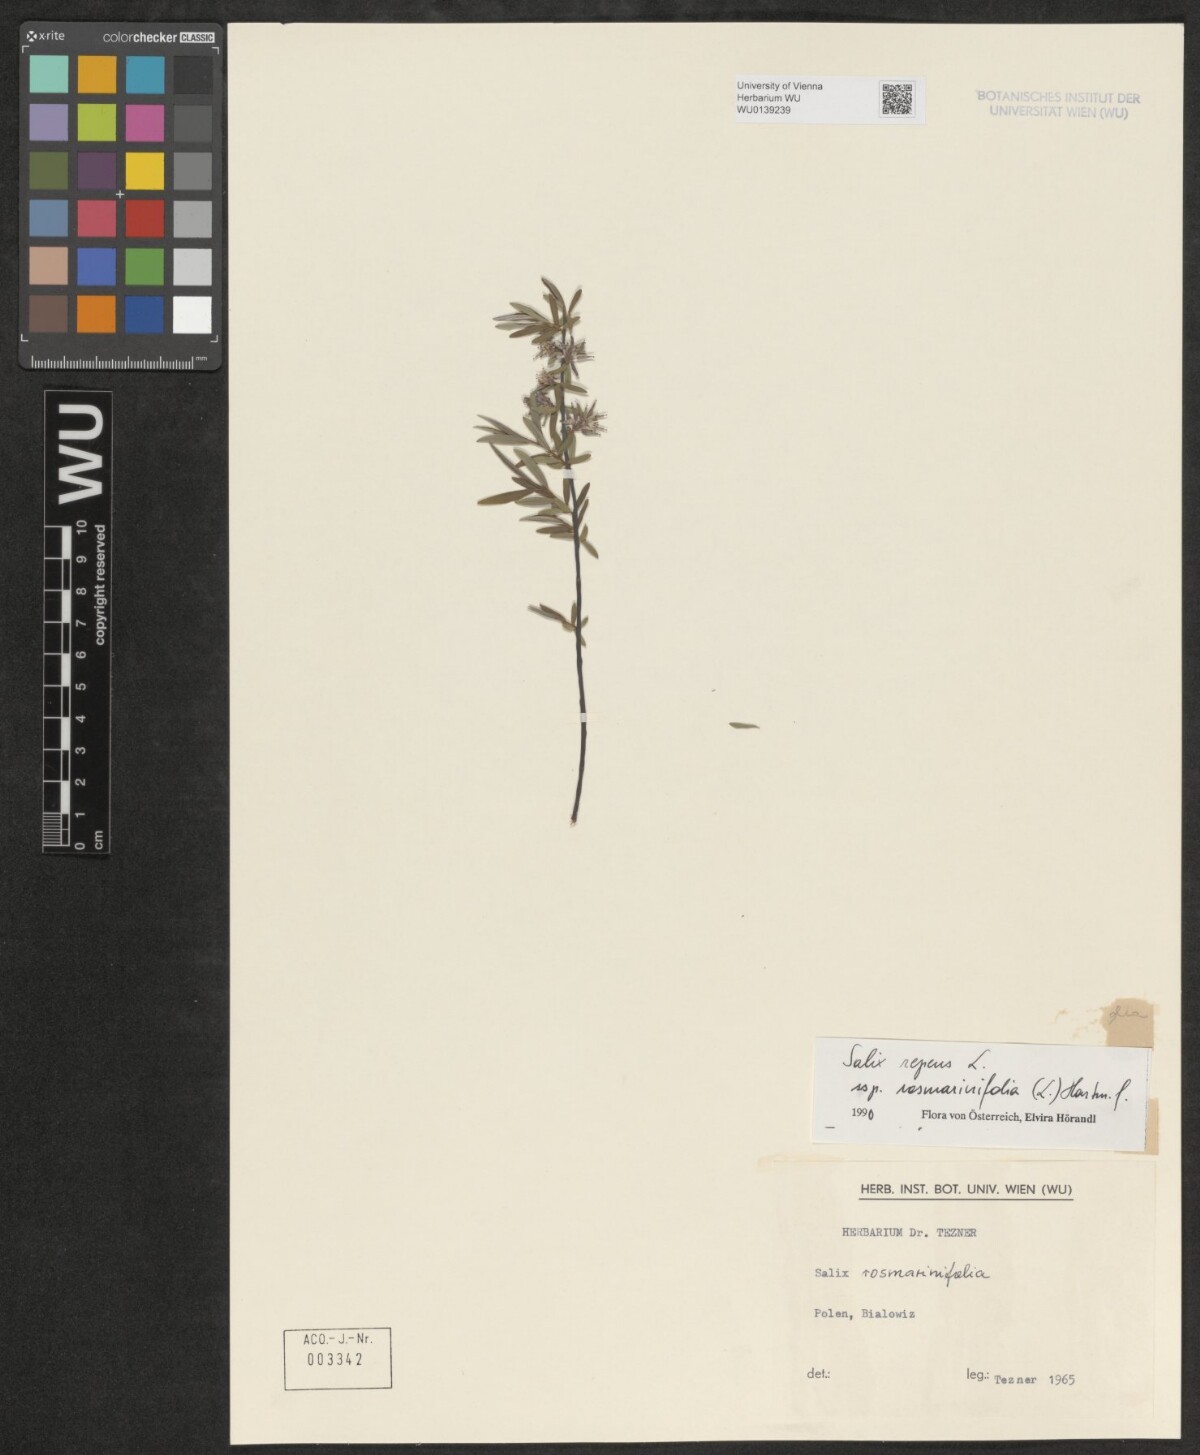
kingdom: Plantae
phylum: Tracheophyta
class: Magnoliopsida
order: Malpighiales
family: Salicaceae
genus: Salix
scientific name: Salix repens
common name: Creeping willow
